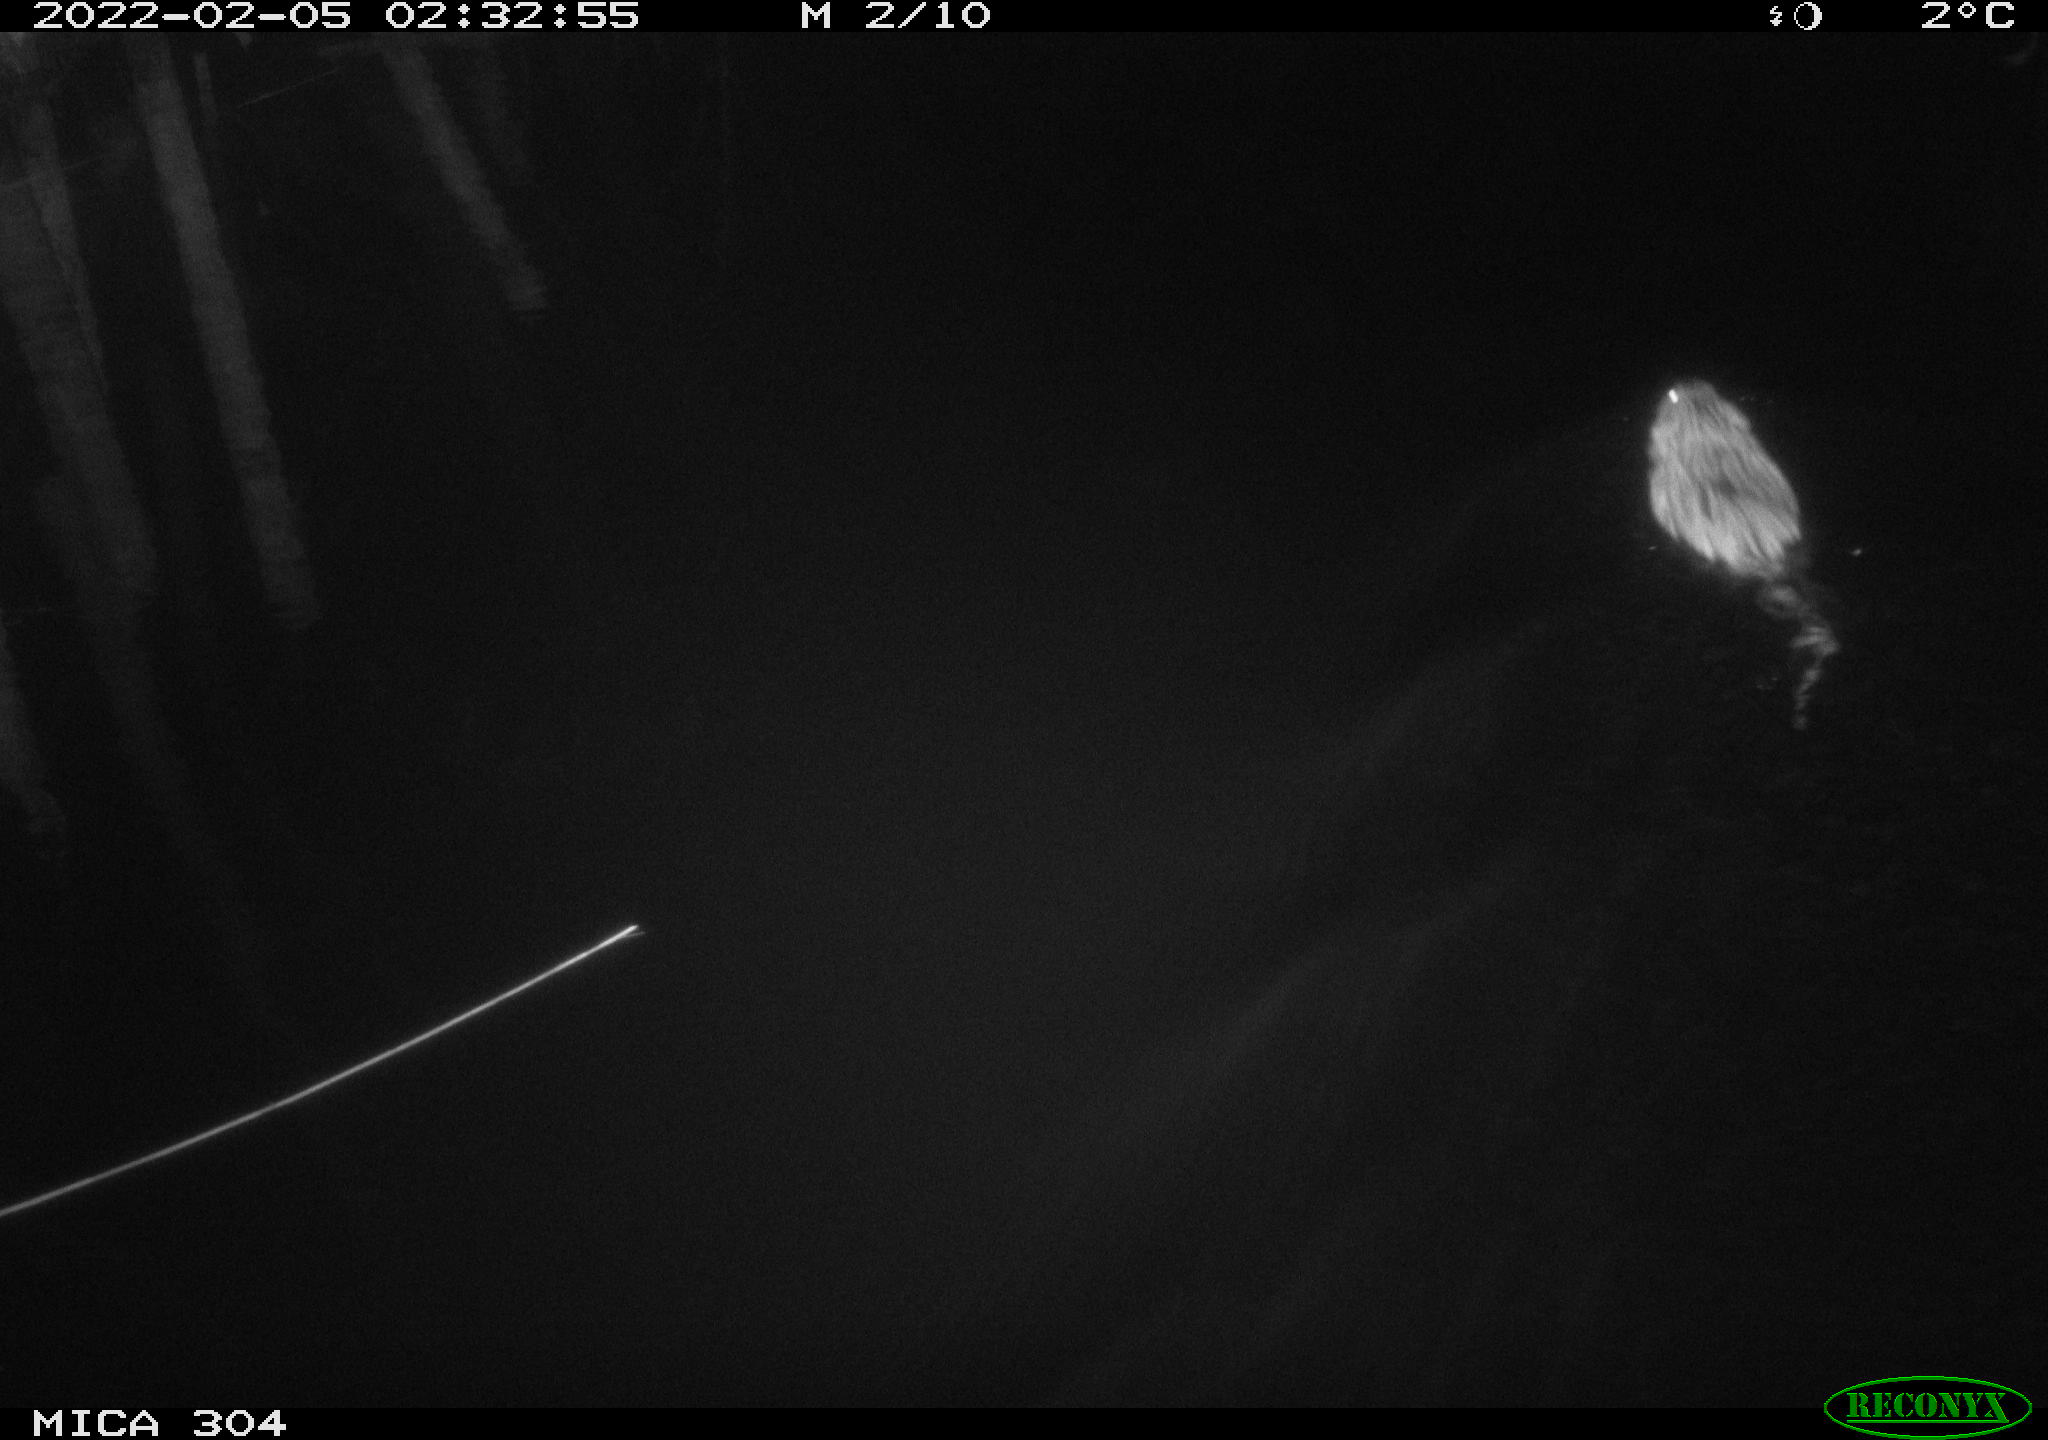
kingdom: Animalia
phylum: Chordata
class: Mammalia
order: Rodentia
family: Cricetidae
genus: Ondatra
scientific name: Ondatra zibethicus
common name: Muskrat
